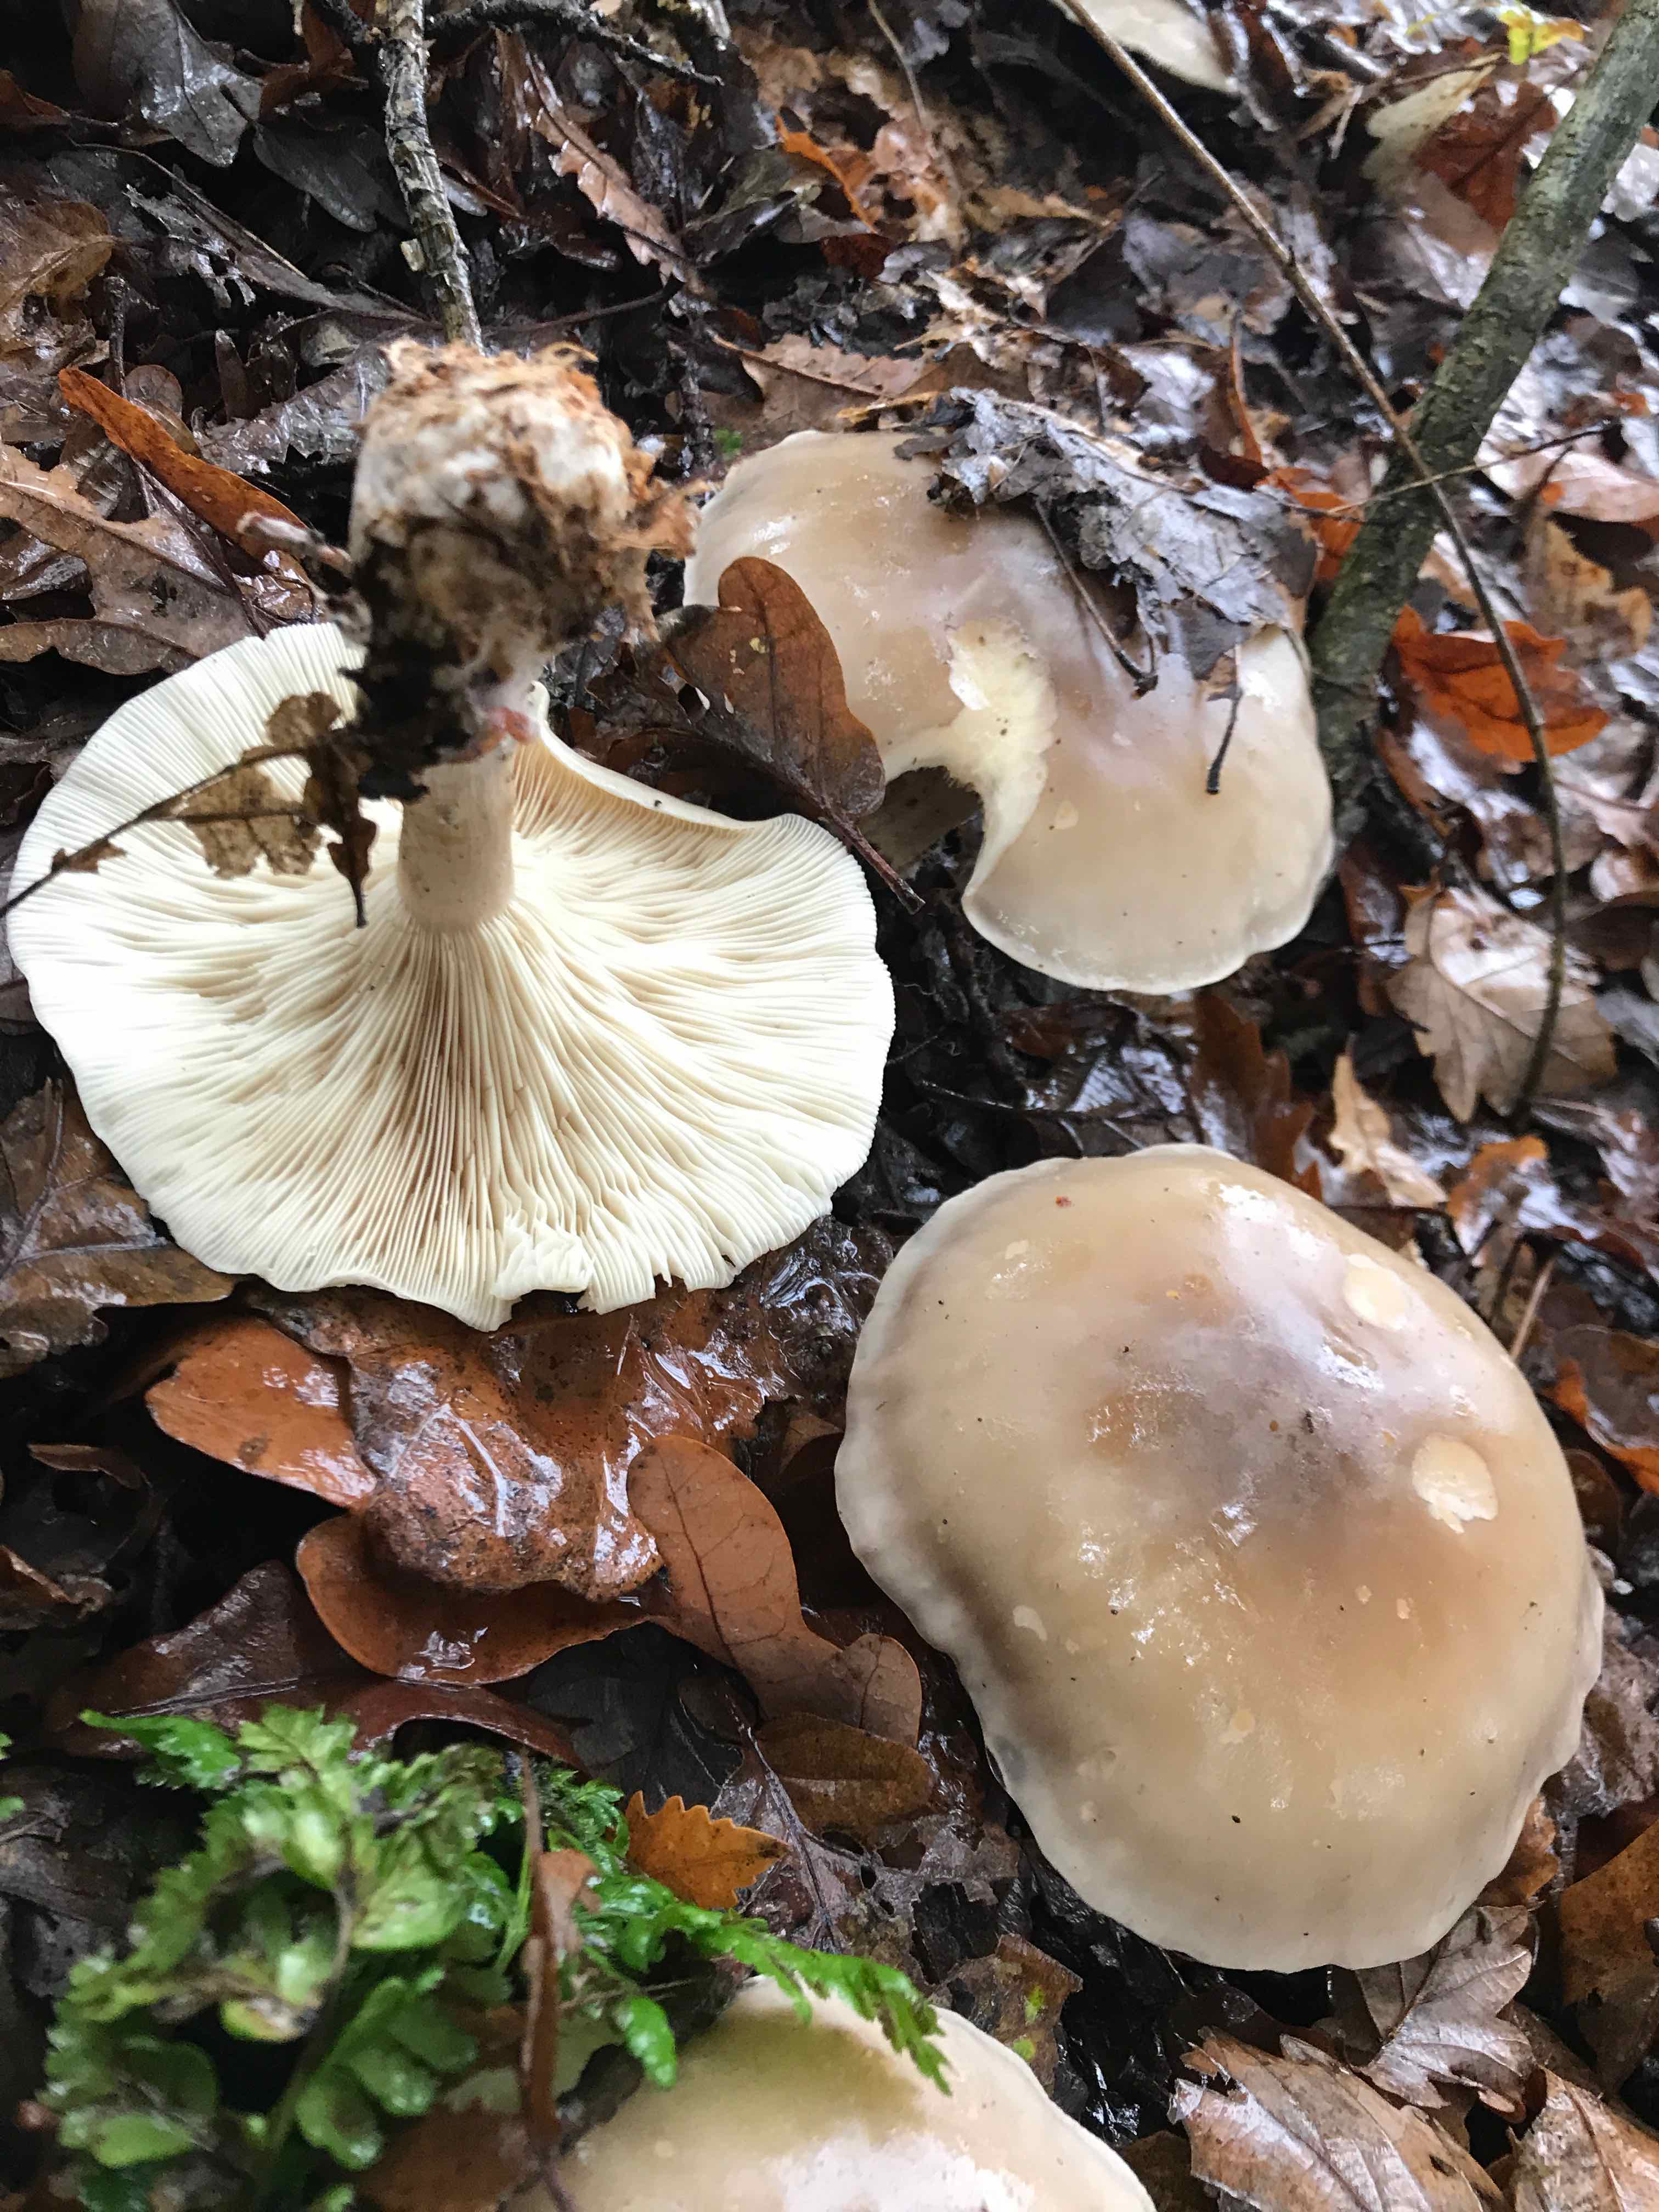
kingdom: Fungi
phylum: Basidiomycota
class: Agaricomycetes
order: Agaricales
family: Tricholomataceae
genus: Clitocybe
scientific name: Clitocybe nebularis
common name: tåge-tragthat
